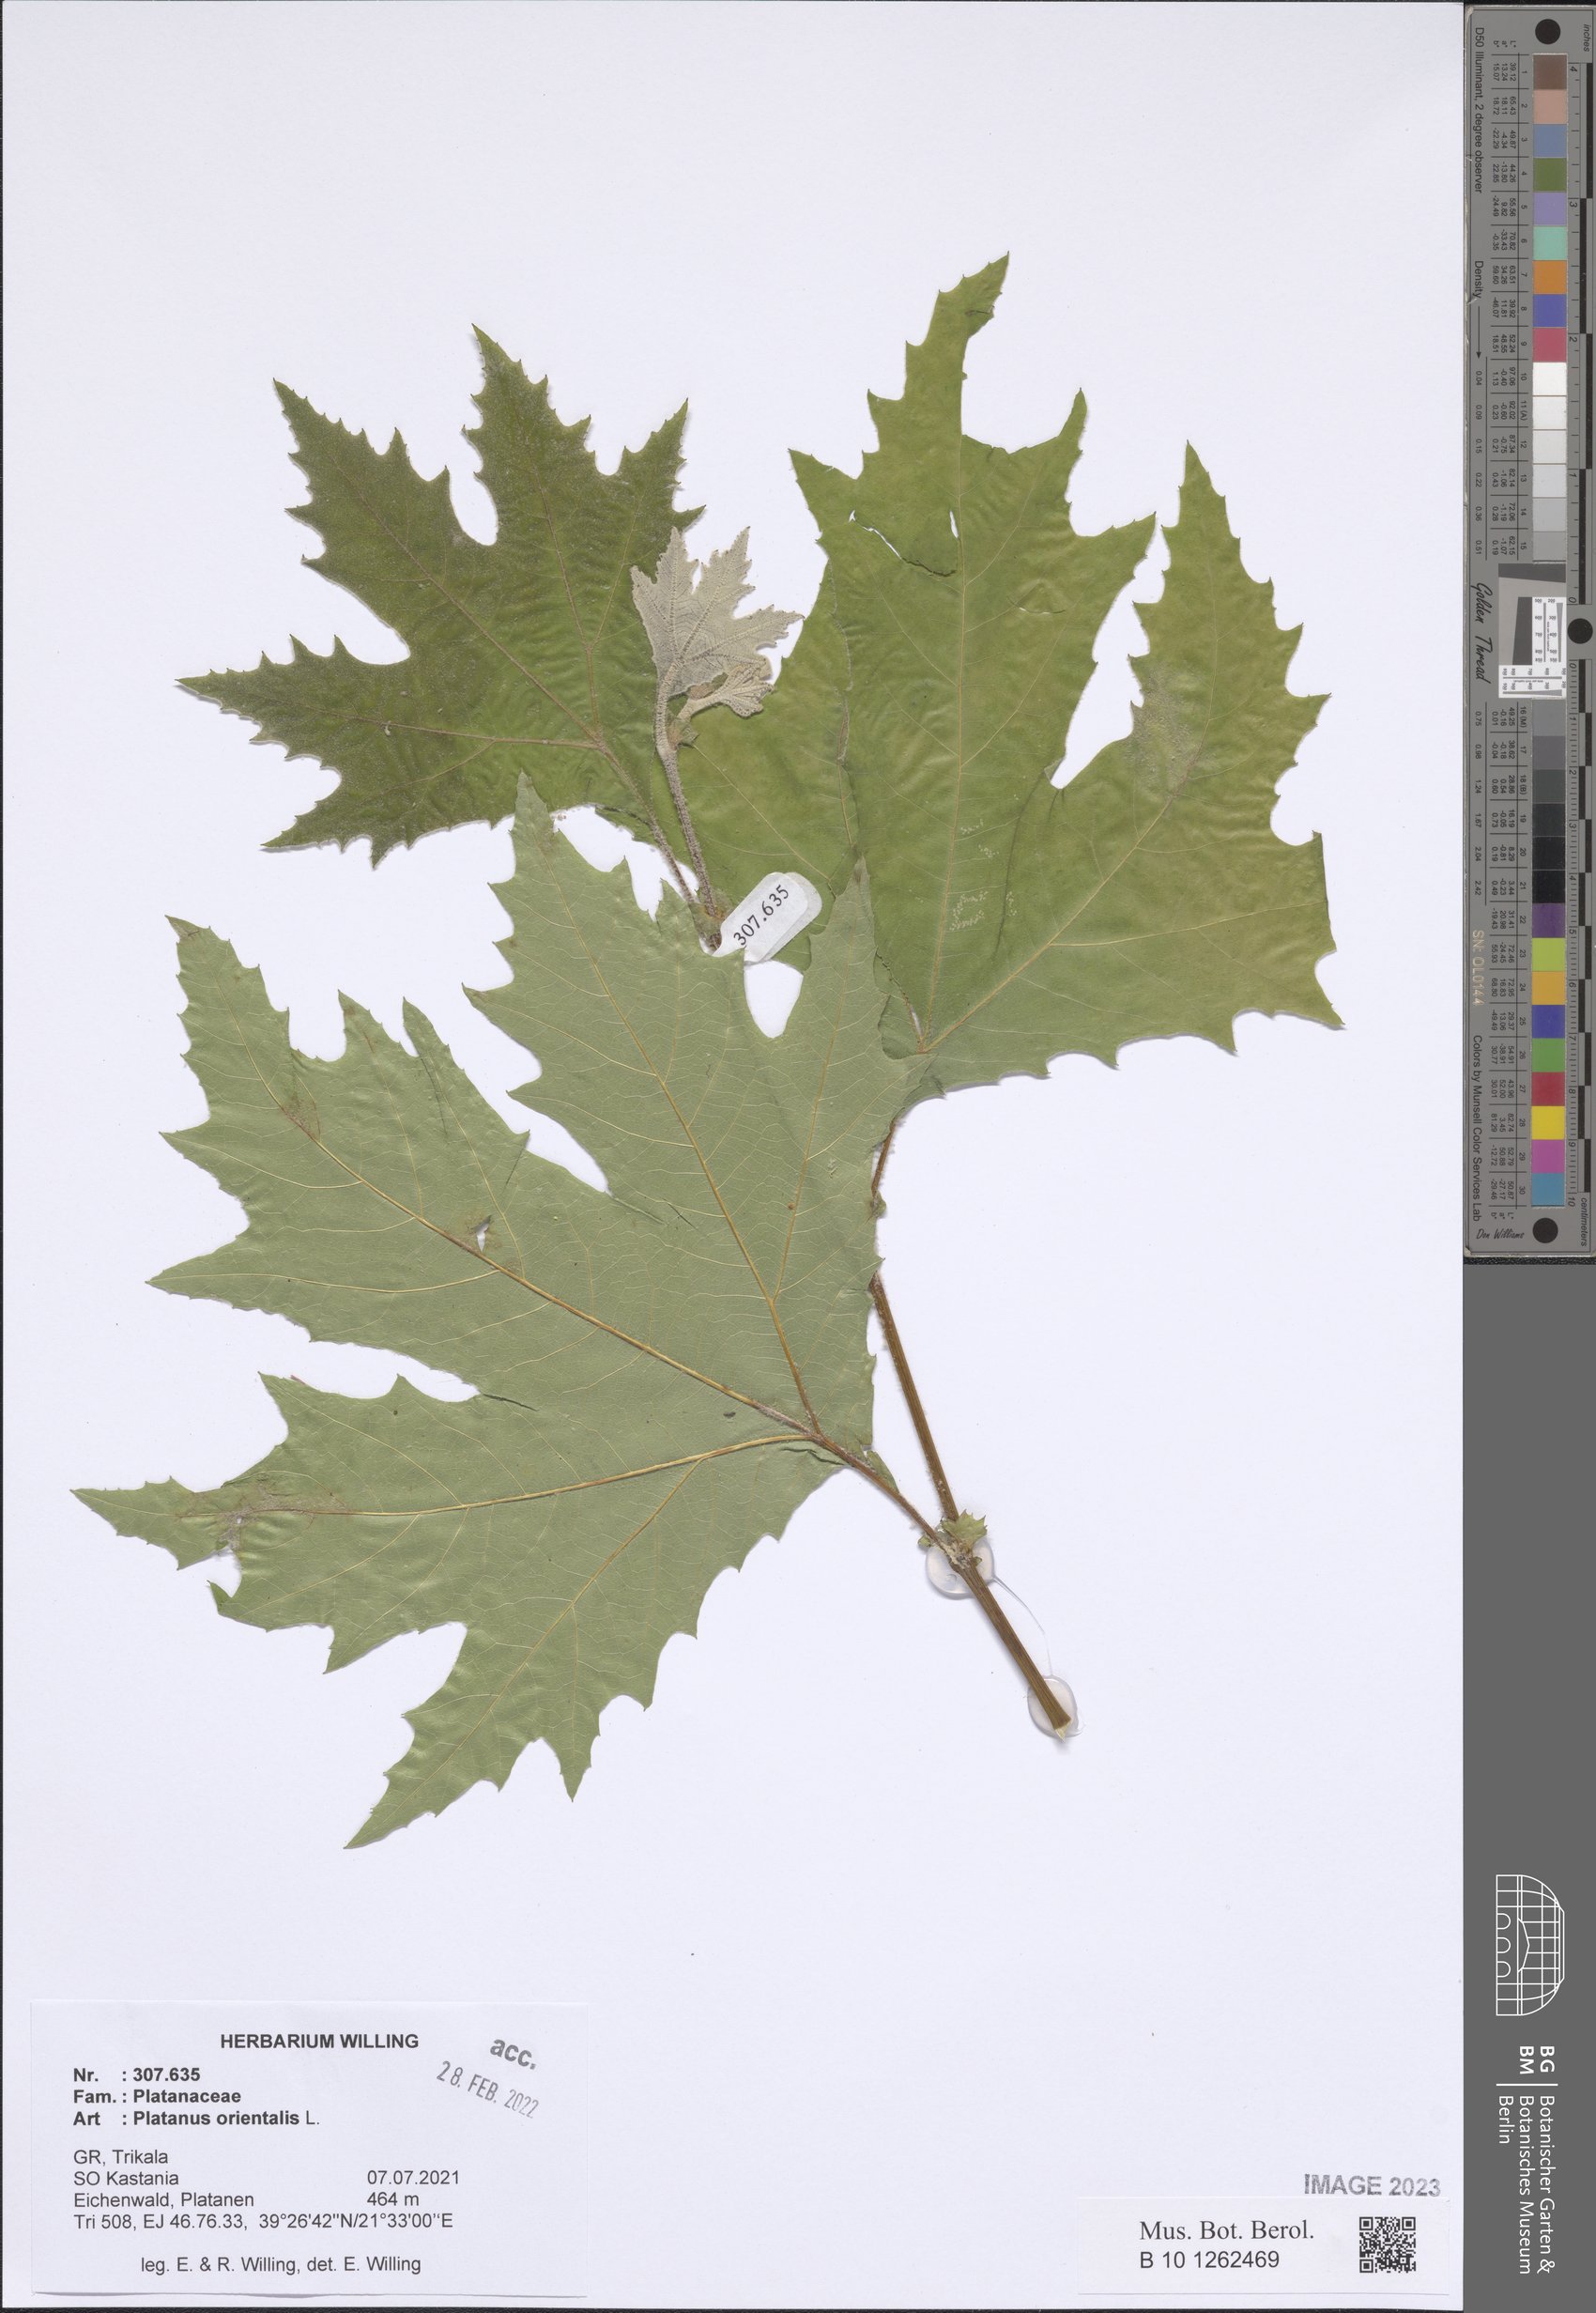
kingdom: Plantae
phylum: Tracheophyta
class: Magnoliopsida
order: Proteales
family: Platanaceae
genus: Platanus
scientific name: Platanus orientalis
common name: Oriental plane
